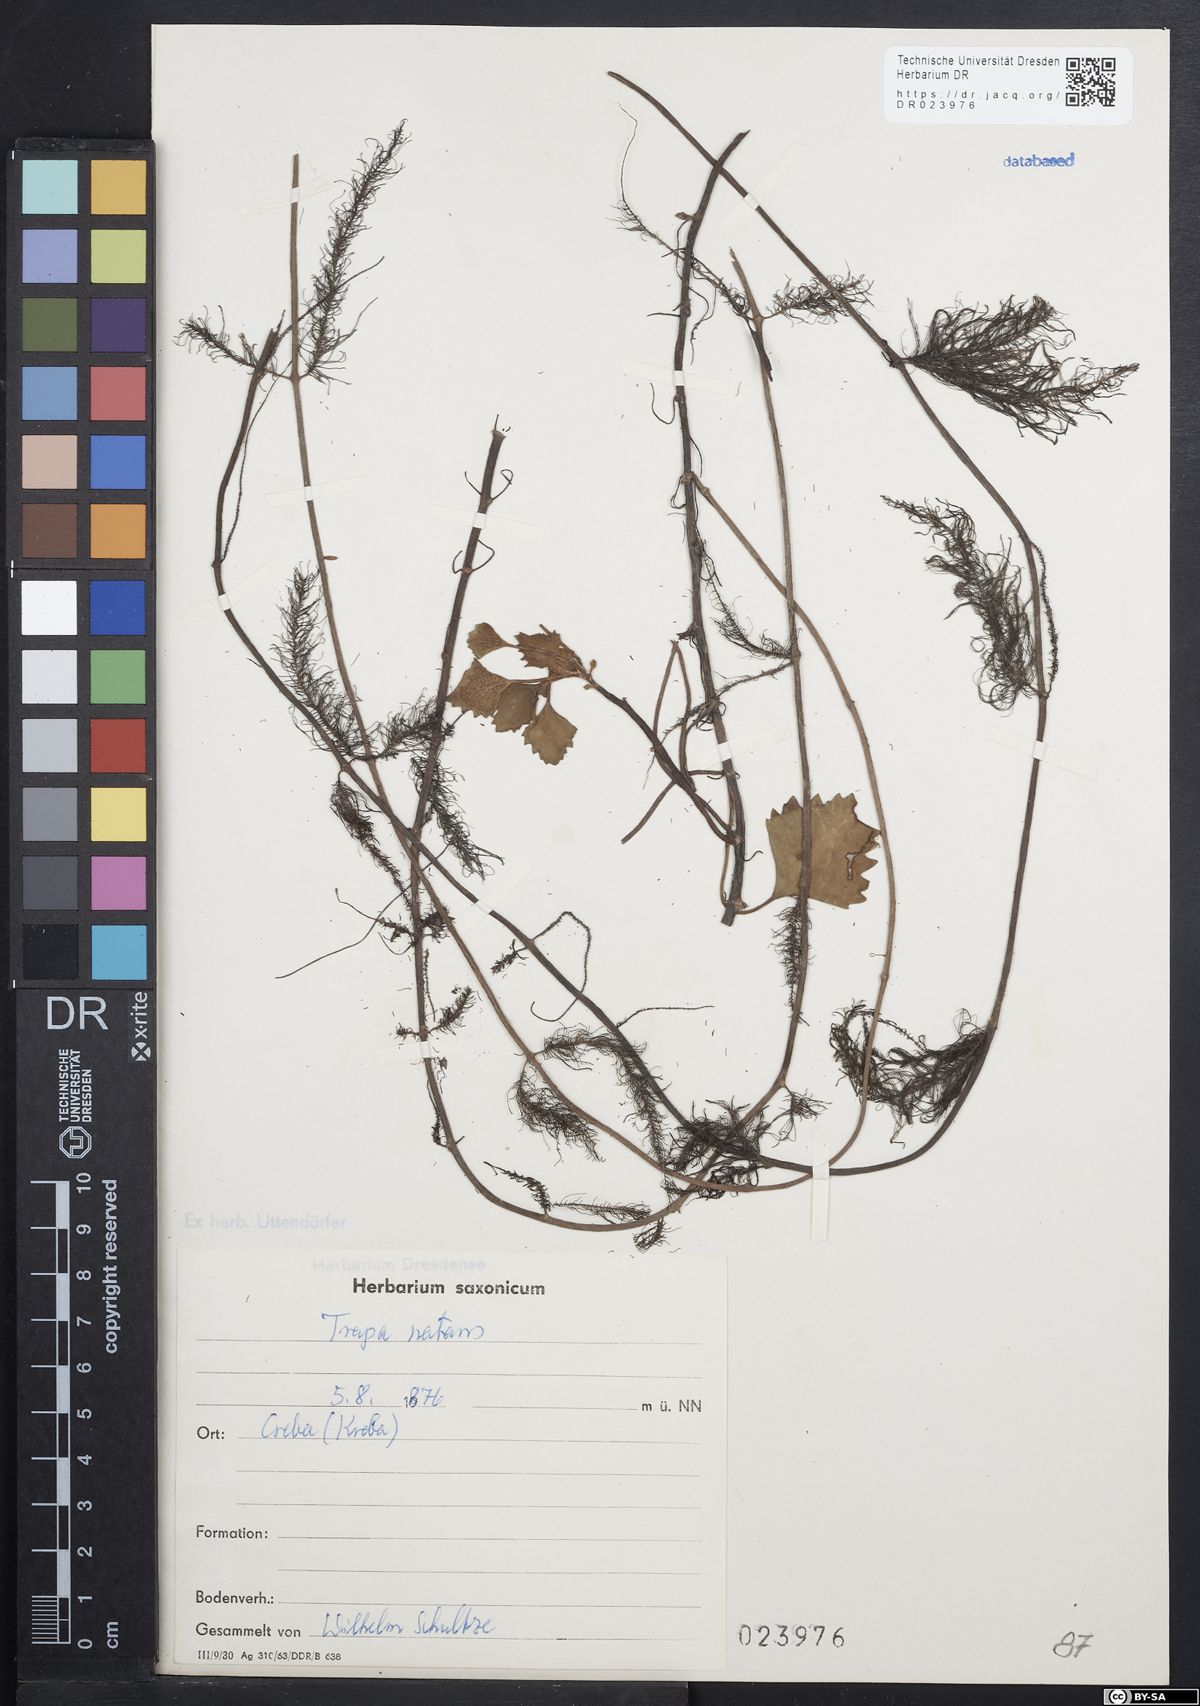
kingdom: Plantae
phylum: Tracheophyta
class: Magnoliopsida
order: Myrtales
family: Lythraceae
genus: Trapa
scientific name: Trapa natans
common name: Water chestnut
